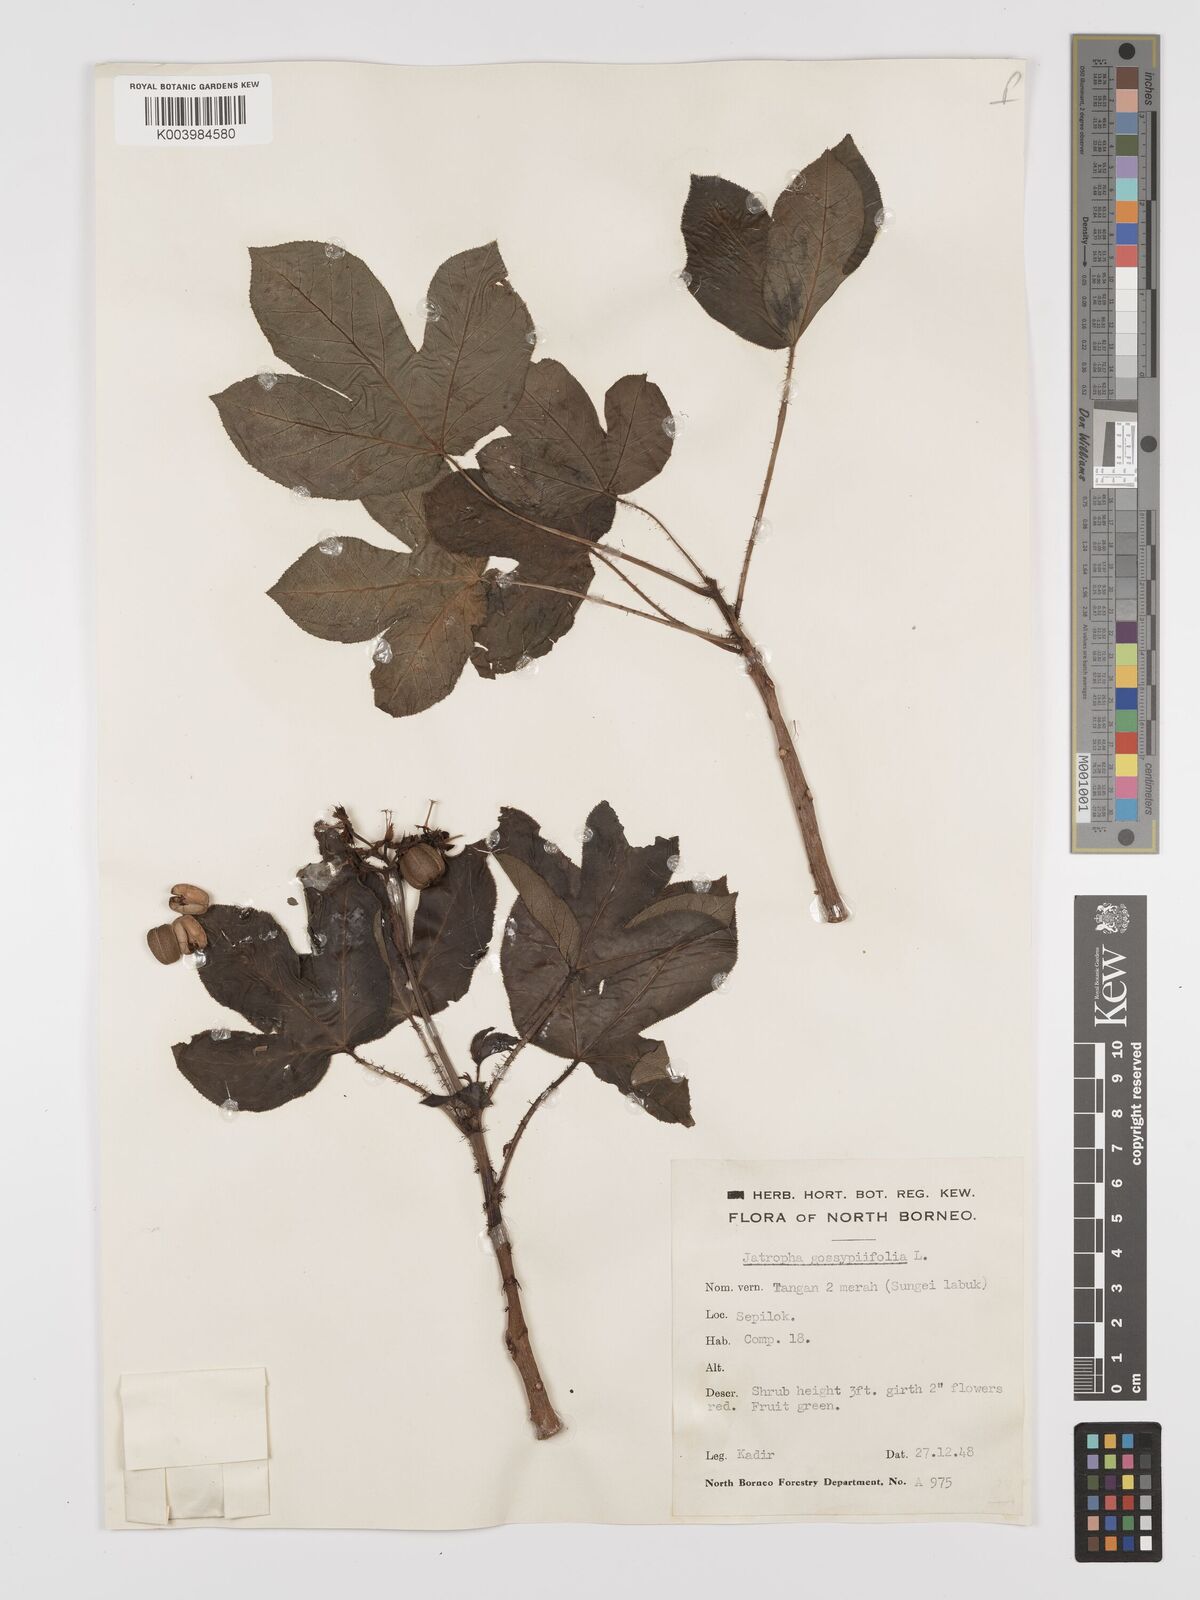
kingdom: Plantae
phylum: Tracheophyta
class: Magnoliopsida
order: Malpighiales
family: Euphorbiaceae
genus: Jatropha
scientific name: Jatropha gossypiifolia
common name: Bellyache bush
